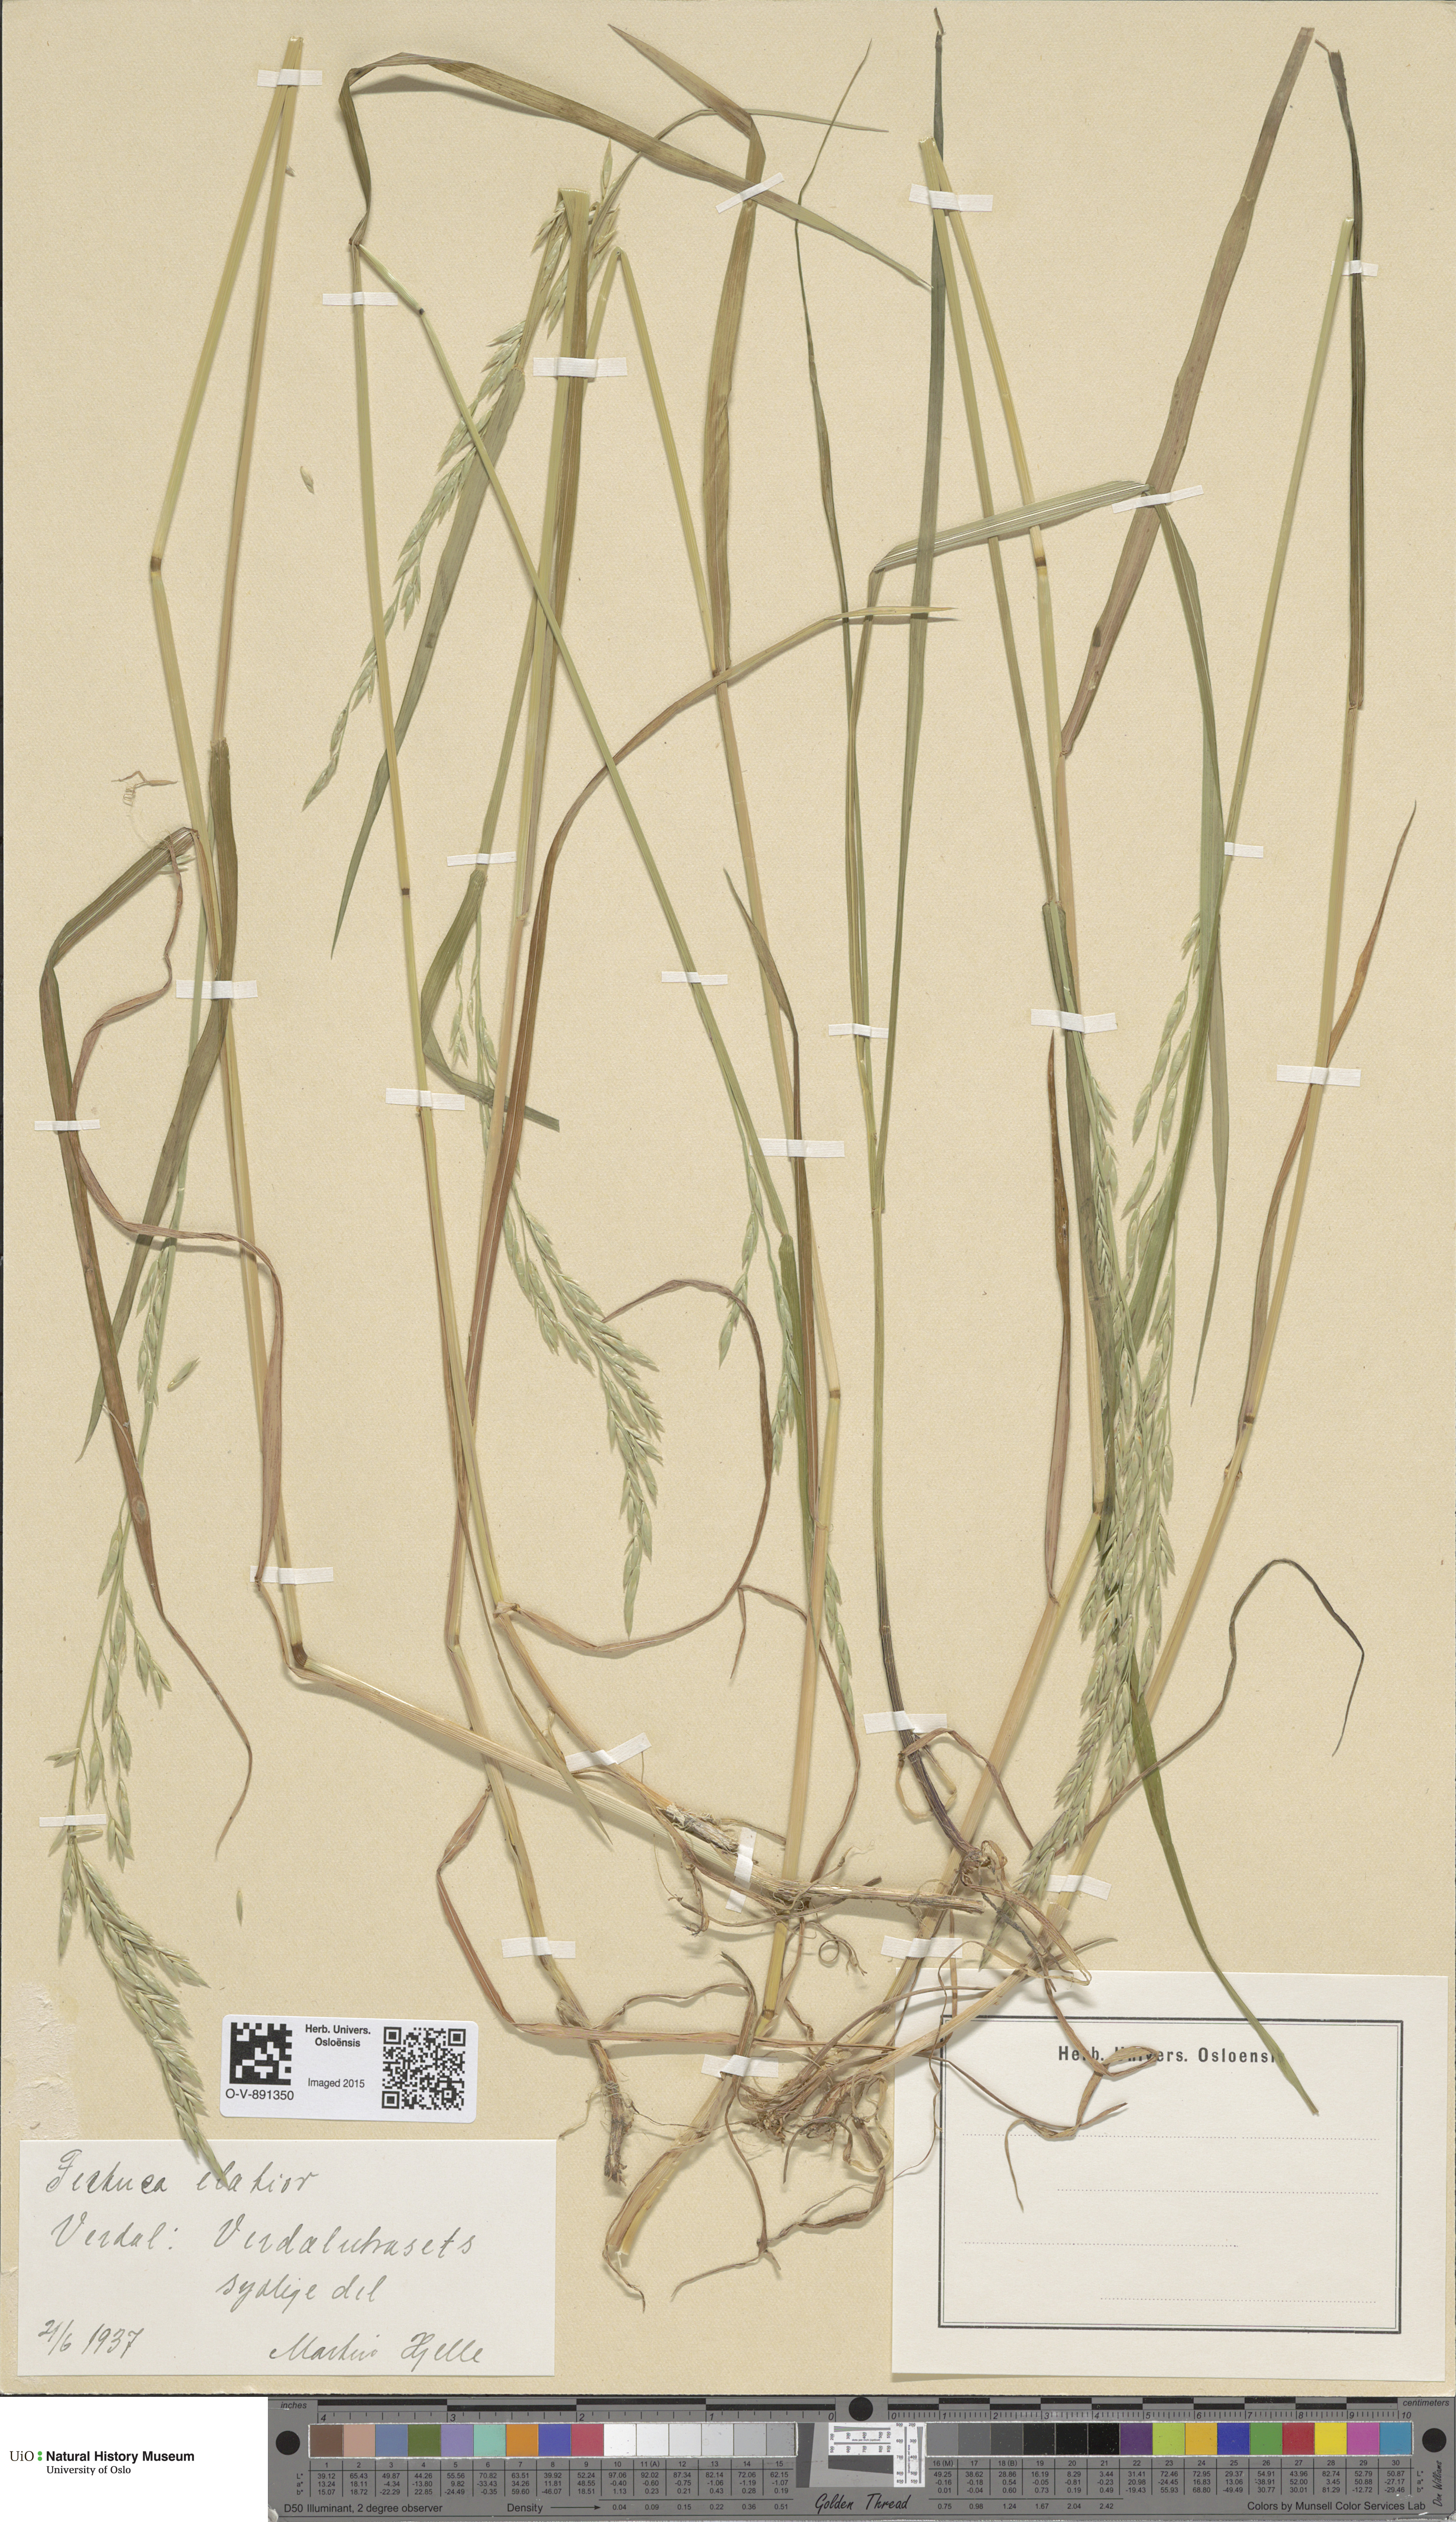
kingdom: Plantae
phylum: Tracheophyta
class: Liliopsida
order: Poales
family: Poaceae
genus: Lolium
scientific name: Lolium arundinaceum
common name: Reed fescue
